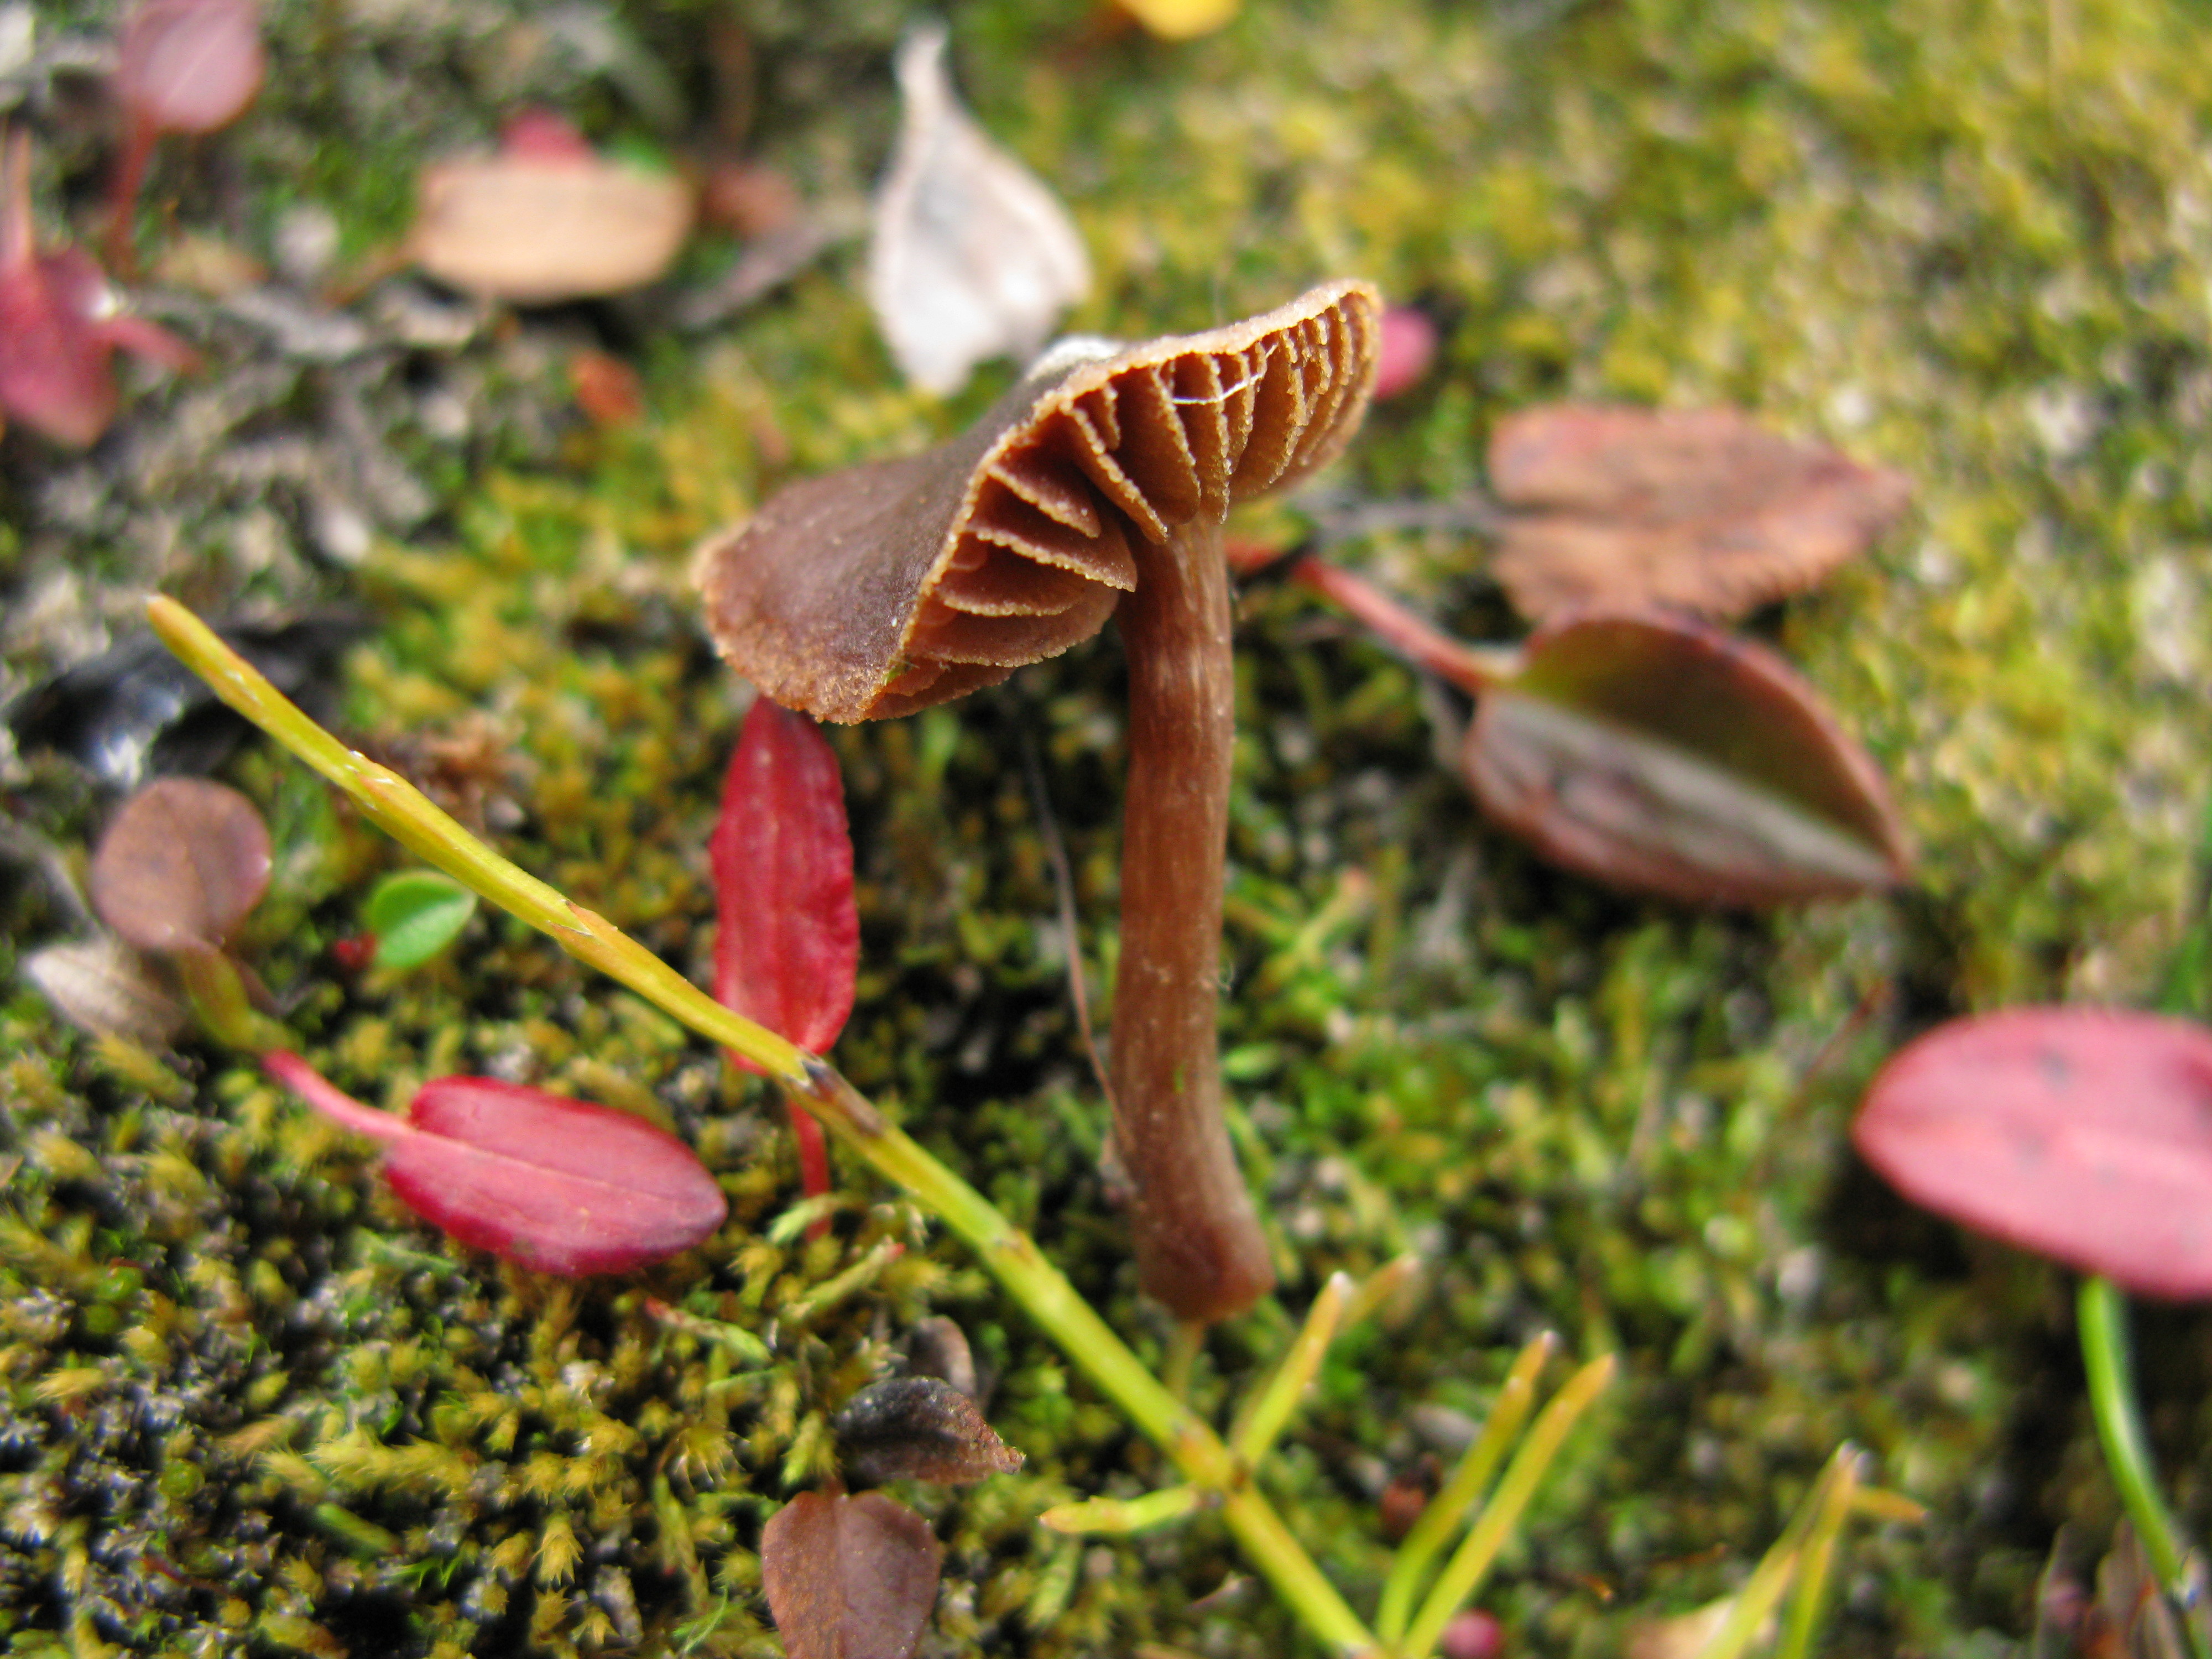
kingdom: Fungi
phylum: Basidiomycota
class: Agaricomycetes
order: Agaricales
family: Cortinariaceae
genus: Cortinarius
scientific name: Cortinarius ammophiloides
